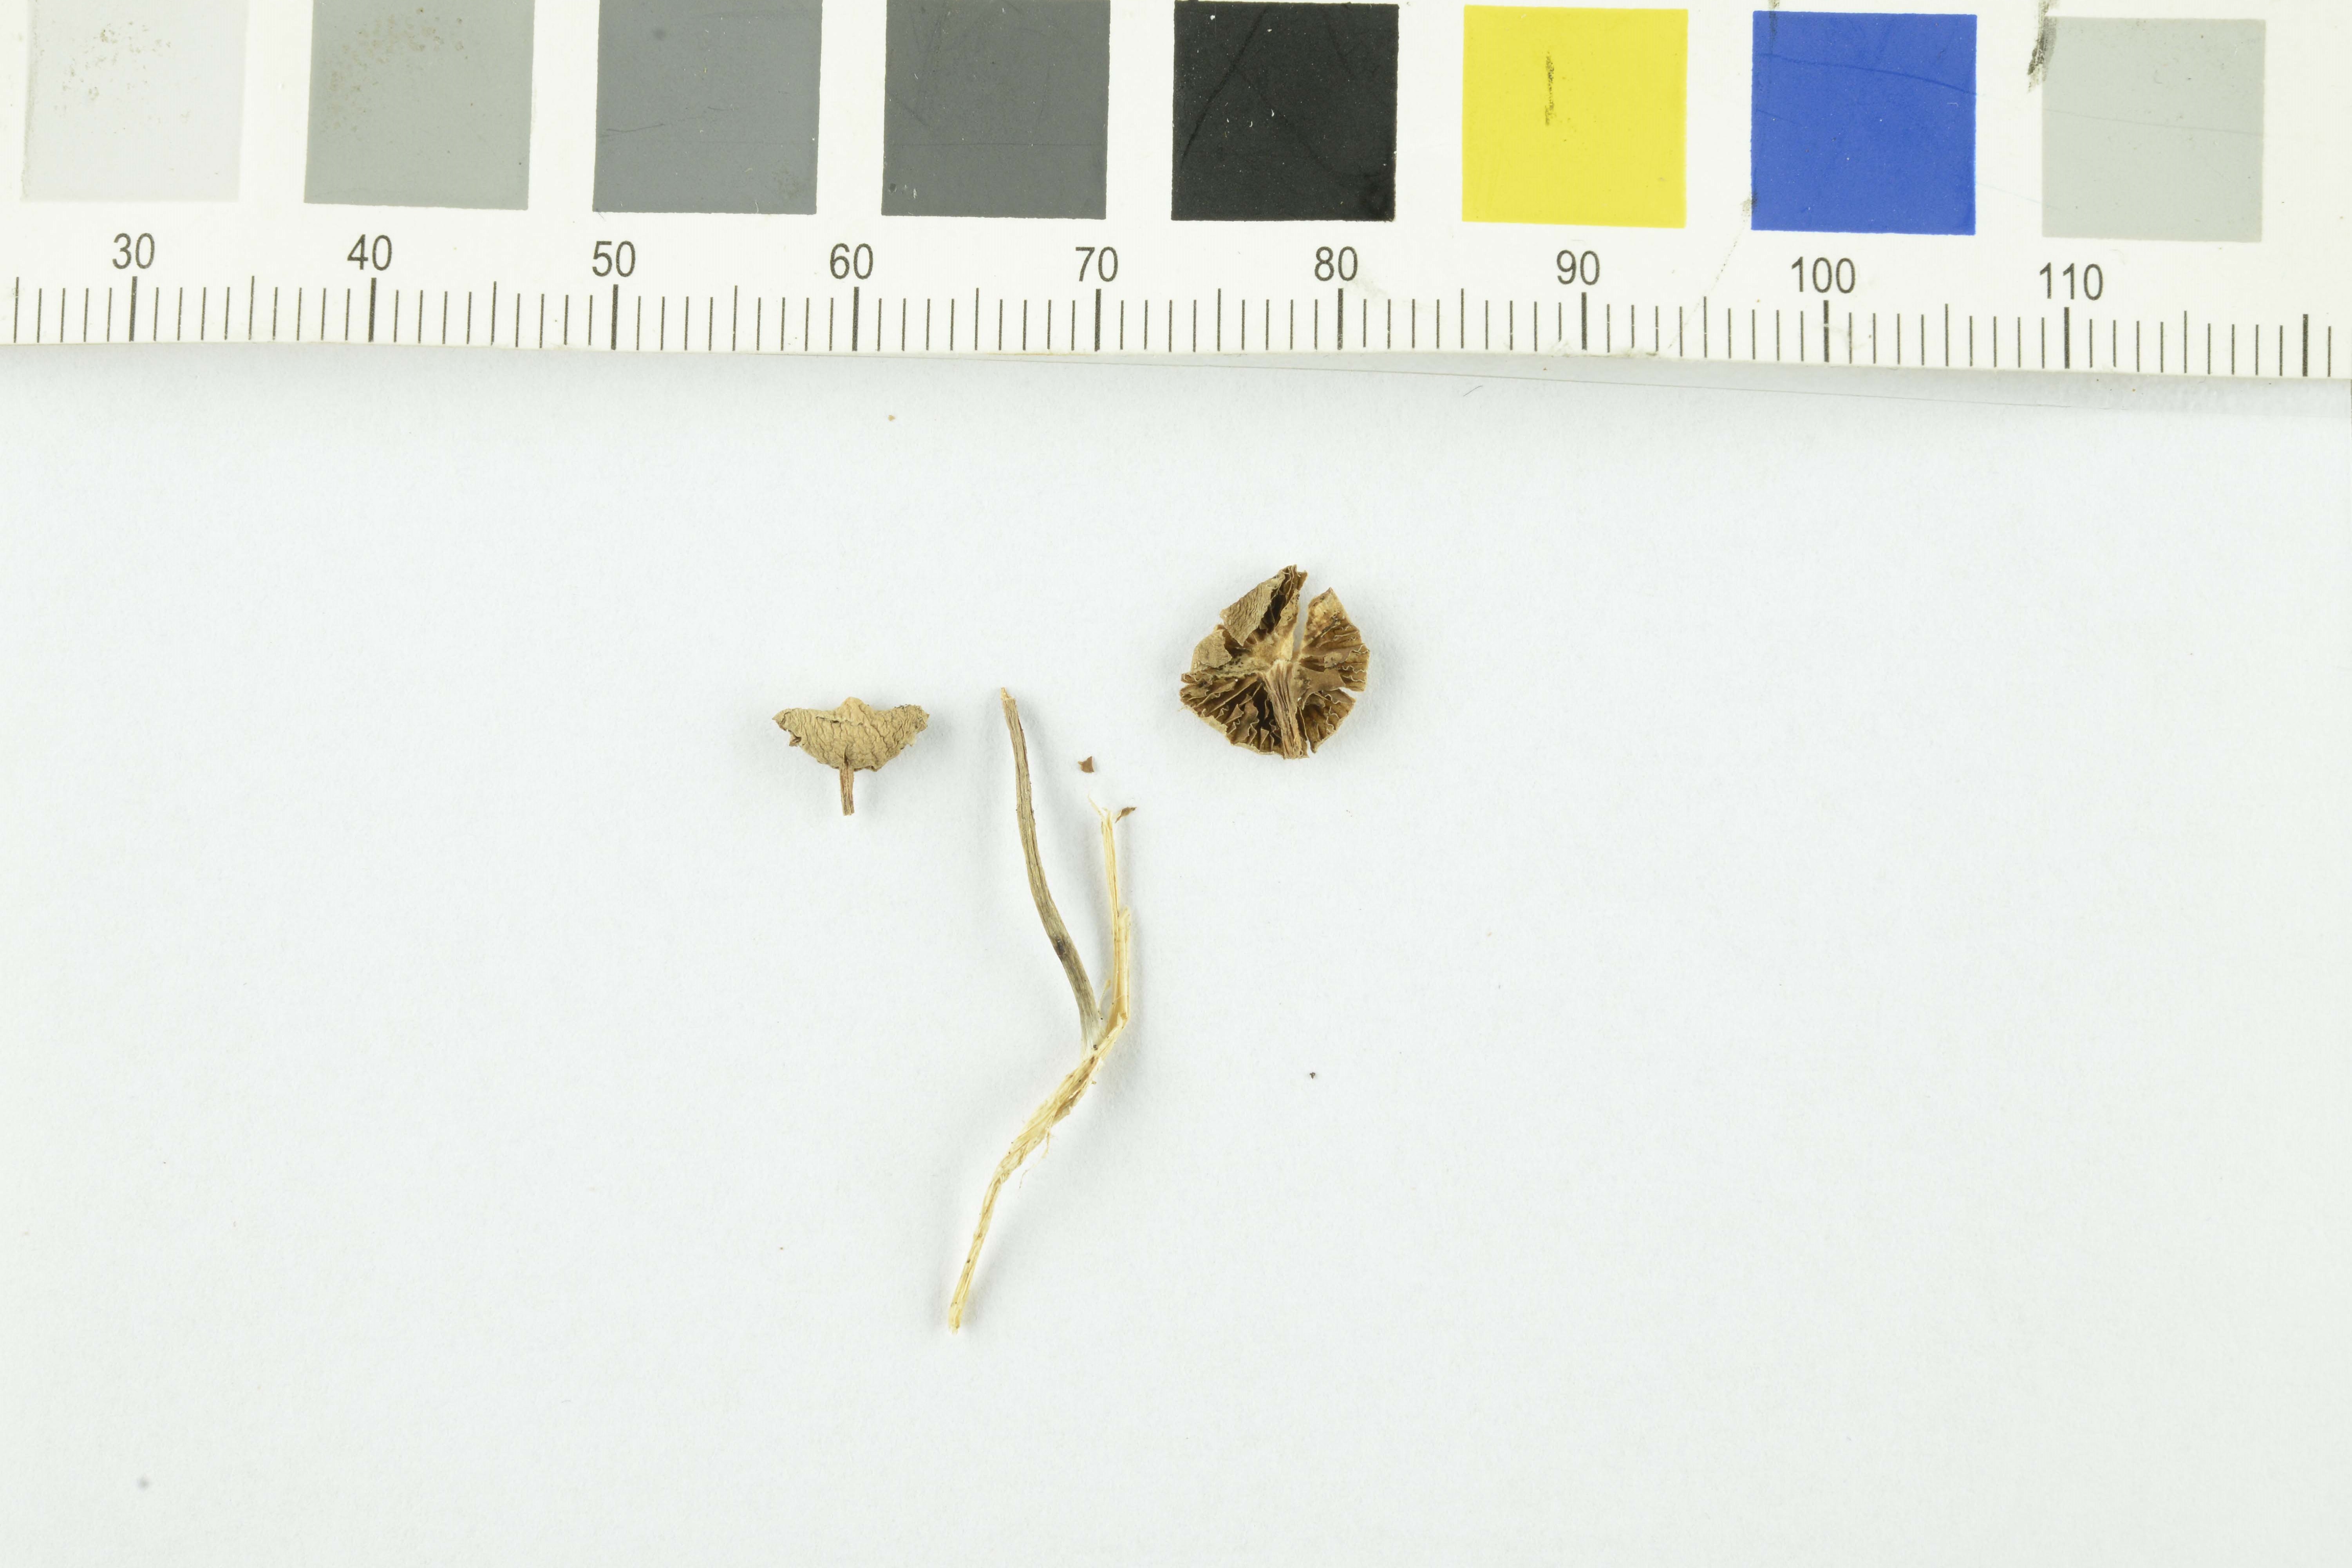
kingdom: Fungi
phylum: Basidiomycota
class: Agaricomycetes
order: Agaricales
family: Strophariaceae
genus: Deconica
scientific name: Deconica inquilina
